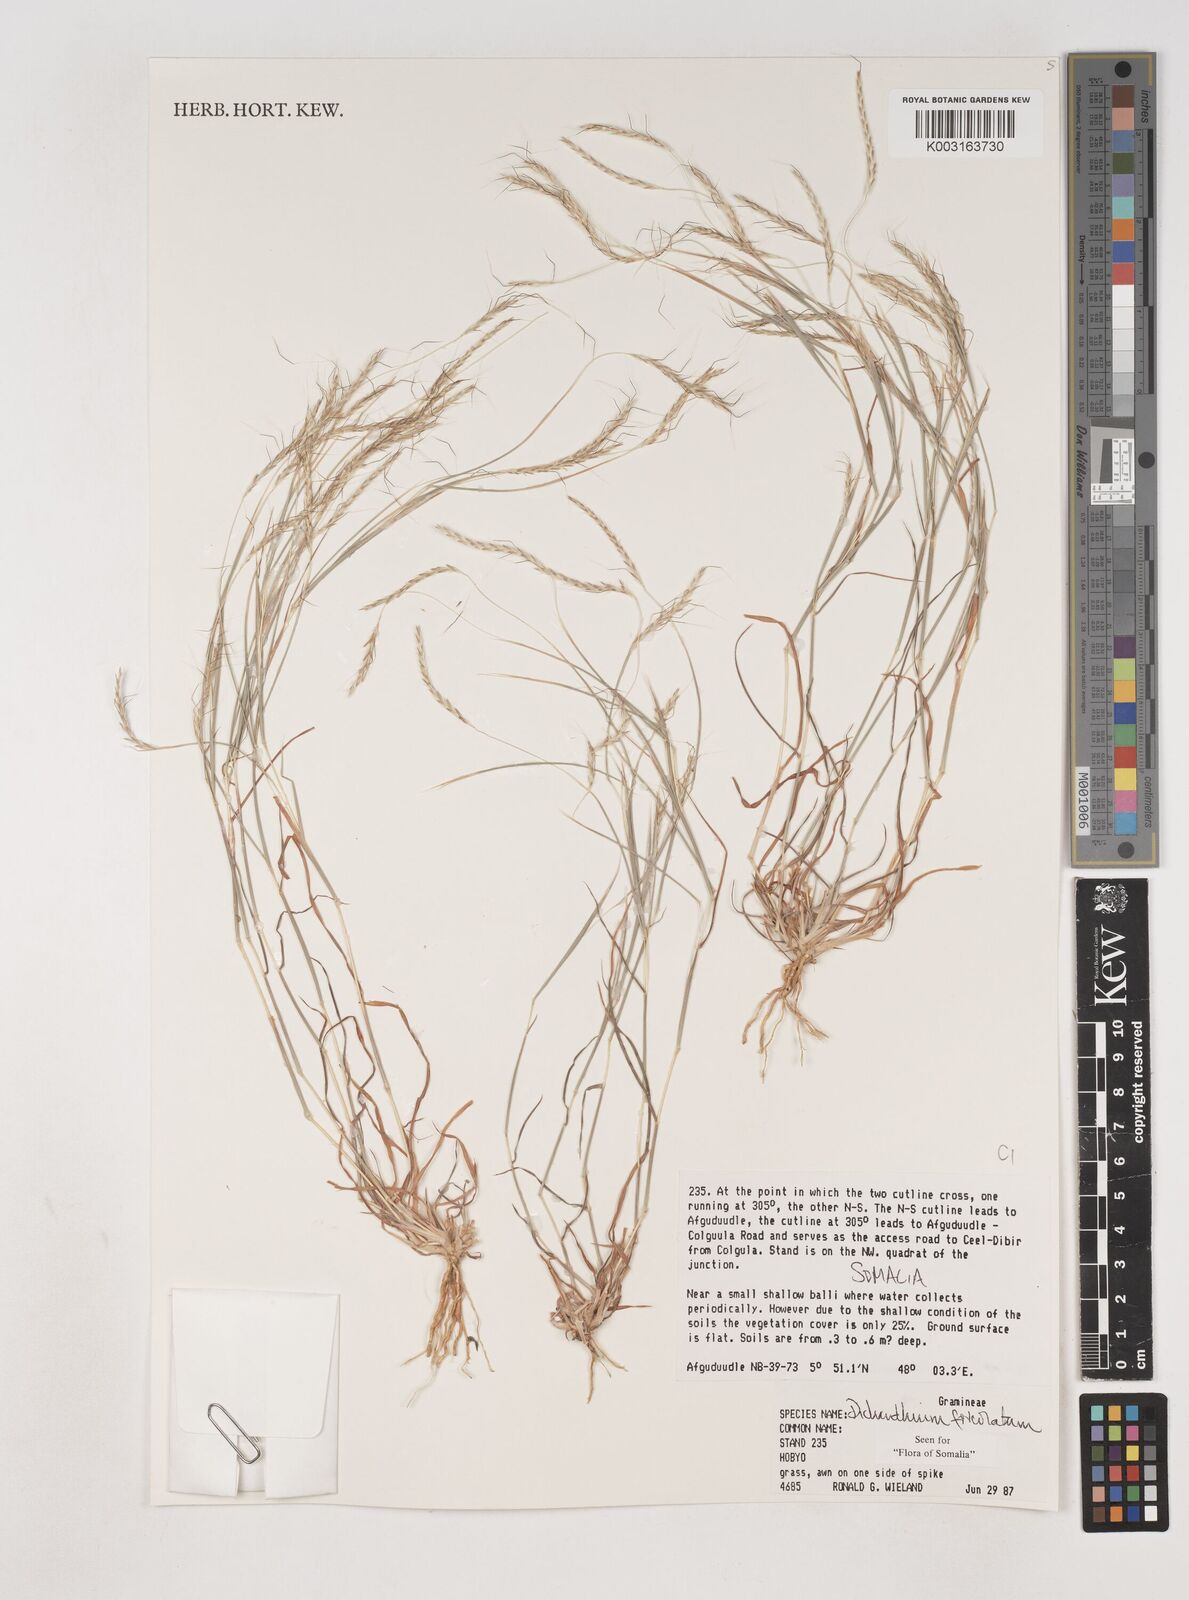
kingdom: Plantae
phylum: Tracheophyta
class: Liliopsida
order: Poales
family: Poaceae
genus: Dichanthium
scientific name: Dichanthium foveolatum
